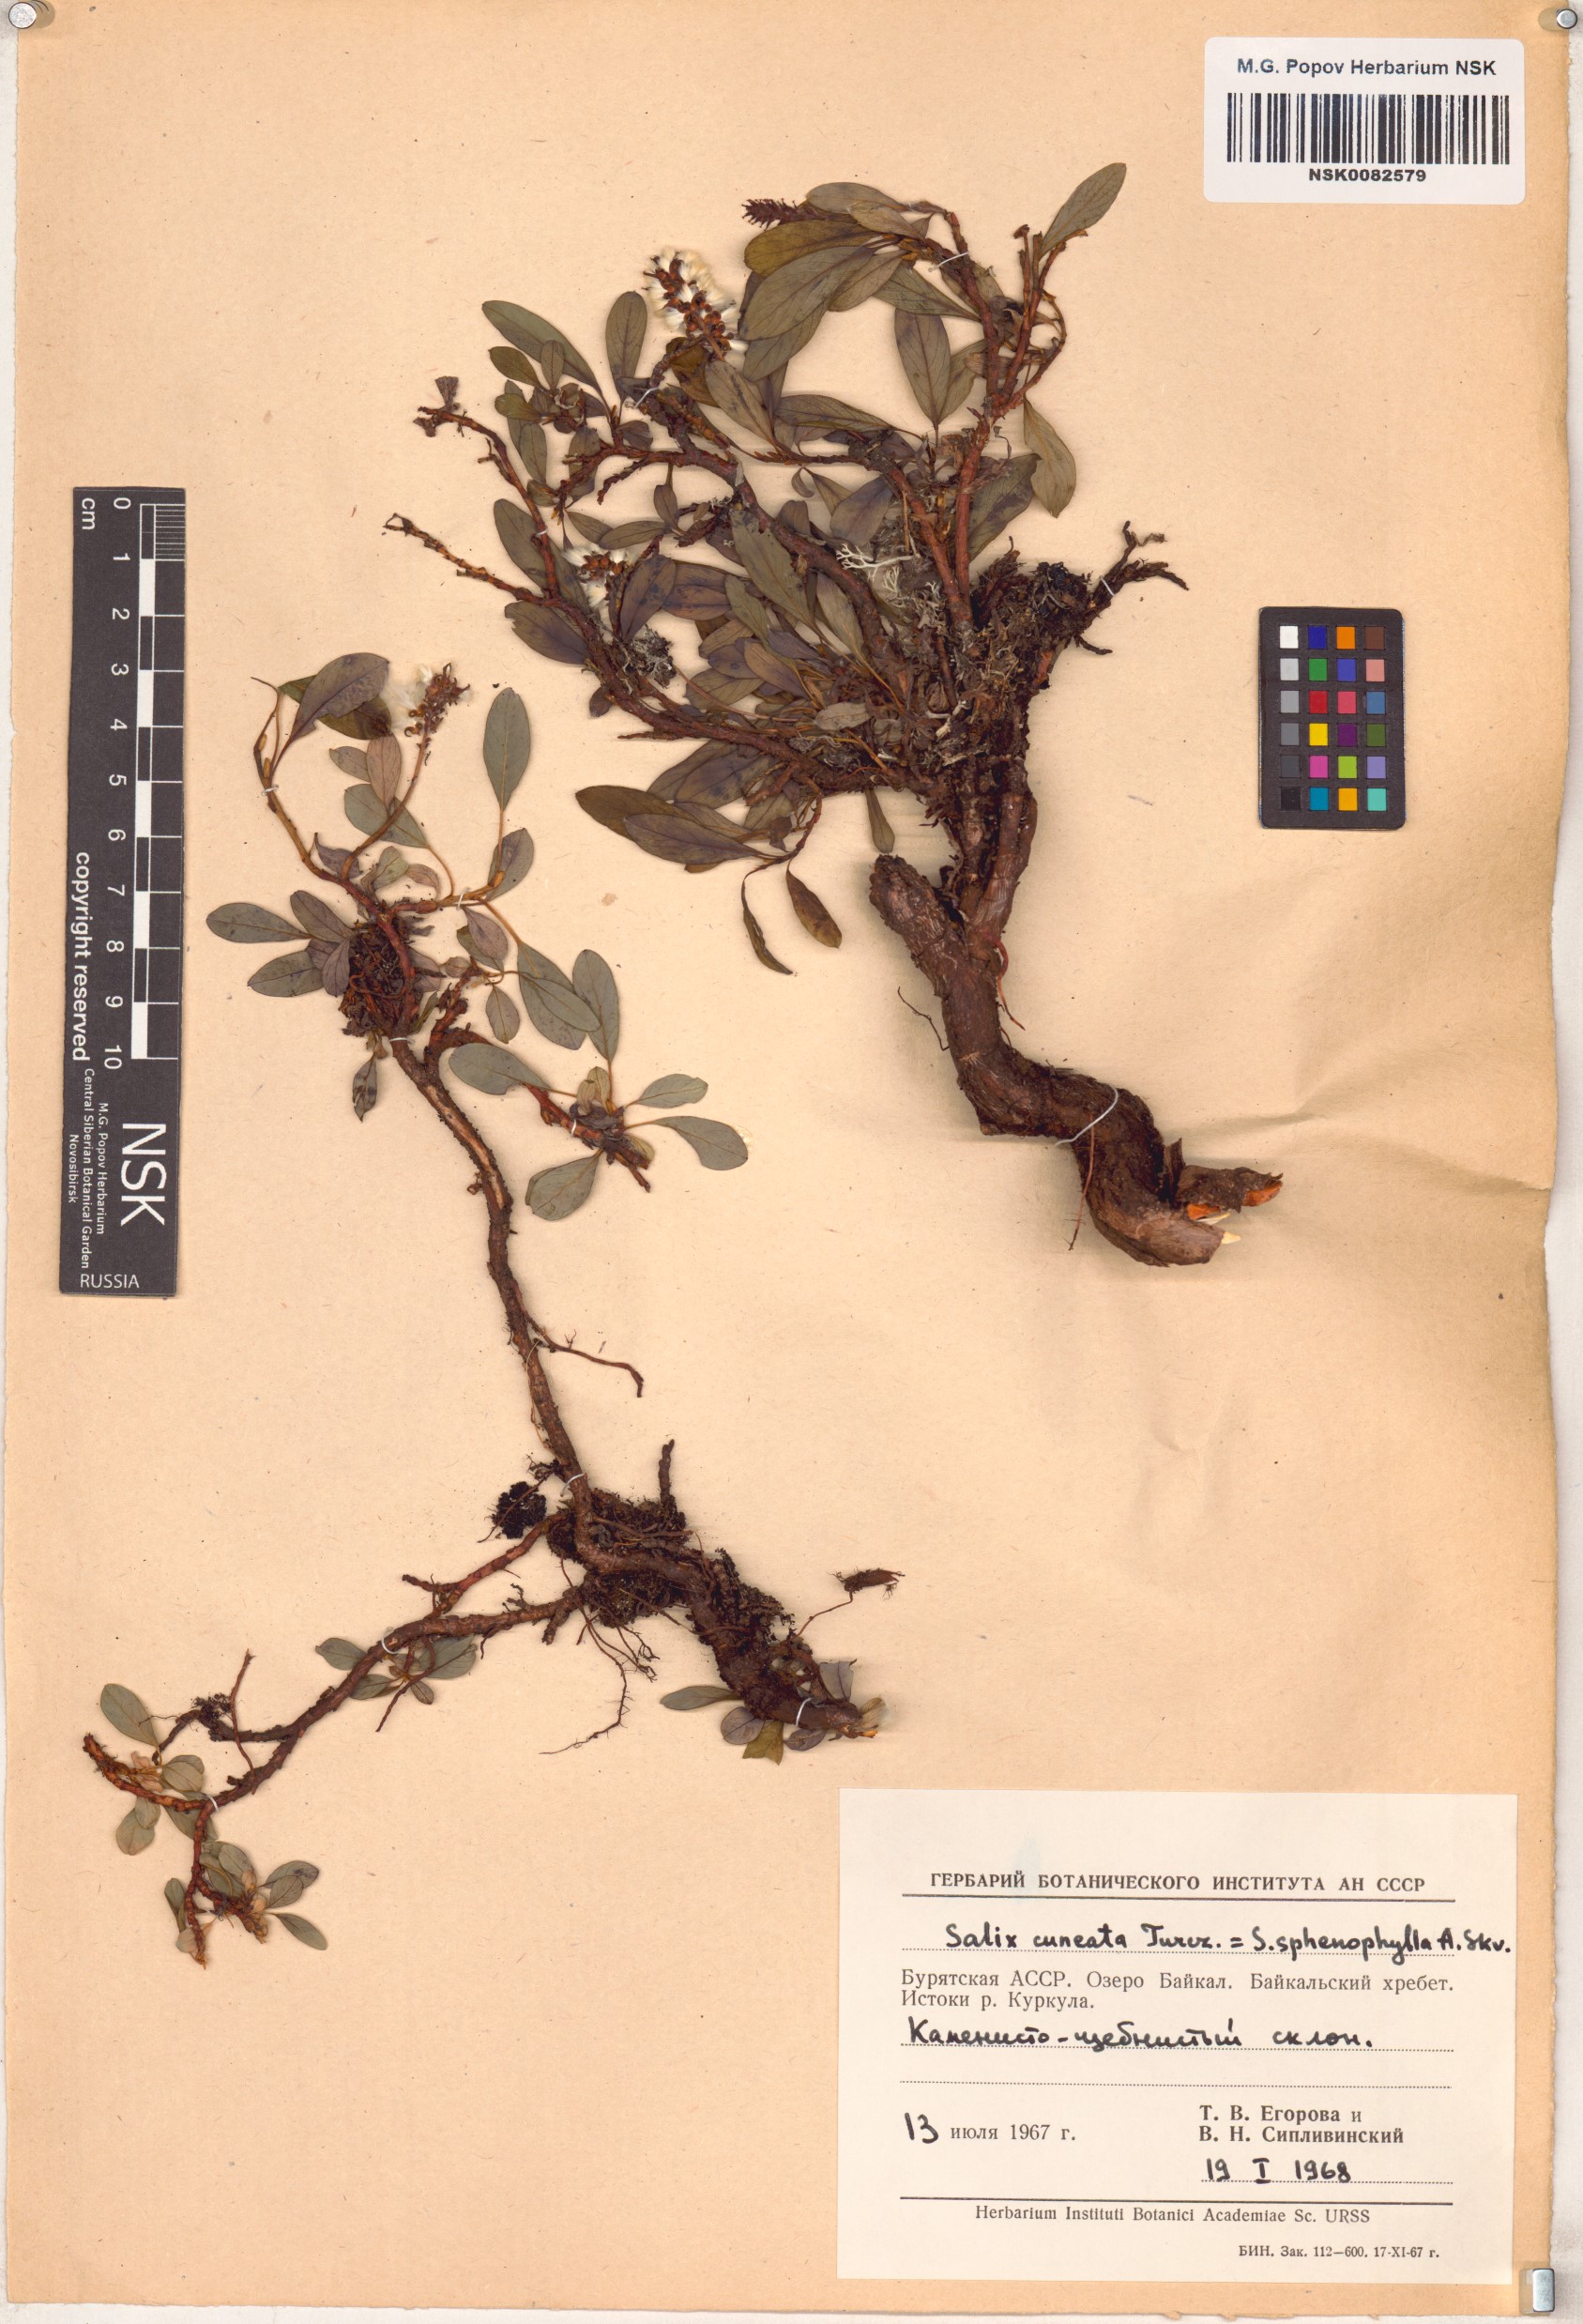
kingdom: Plantae
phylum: Tracheophyta
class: Magnoliopsida
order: Malpighiales
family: Salicaceae
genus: Salix
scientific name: Salix sphenophylla
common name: Wedge-leaved willow
